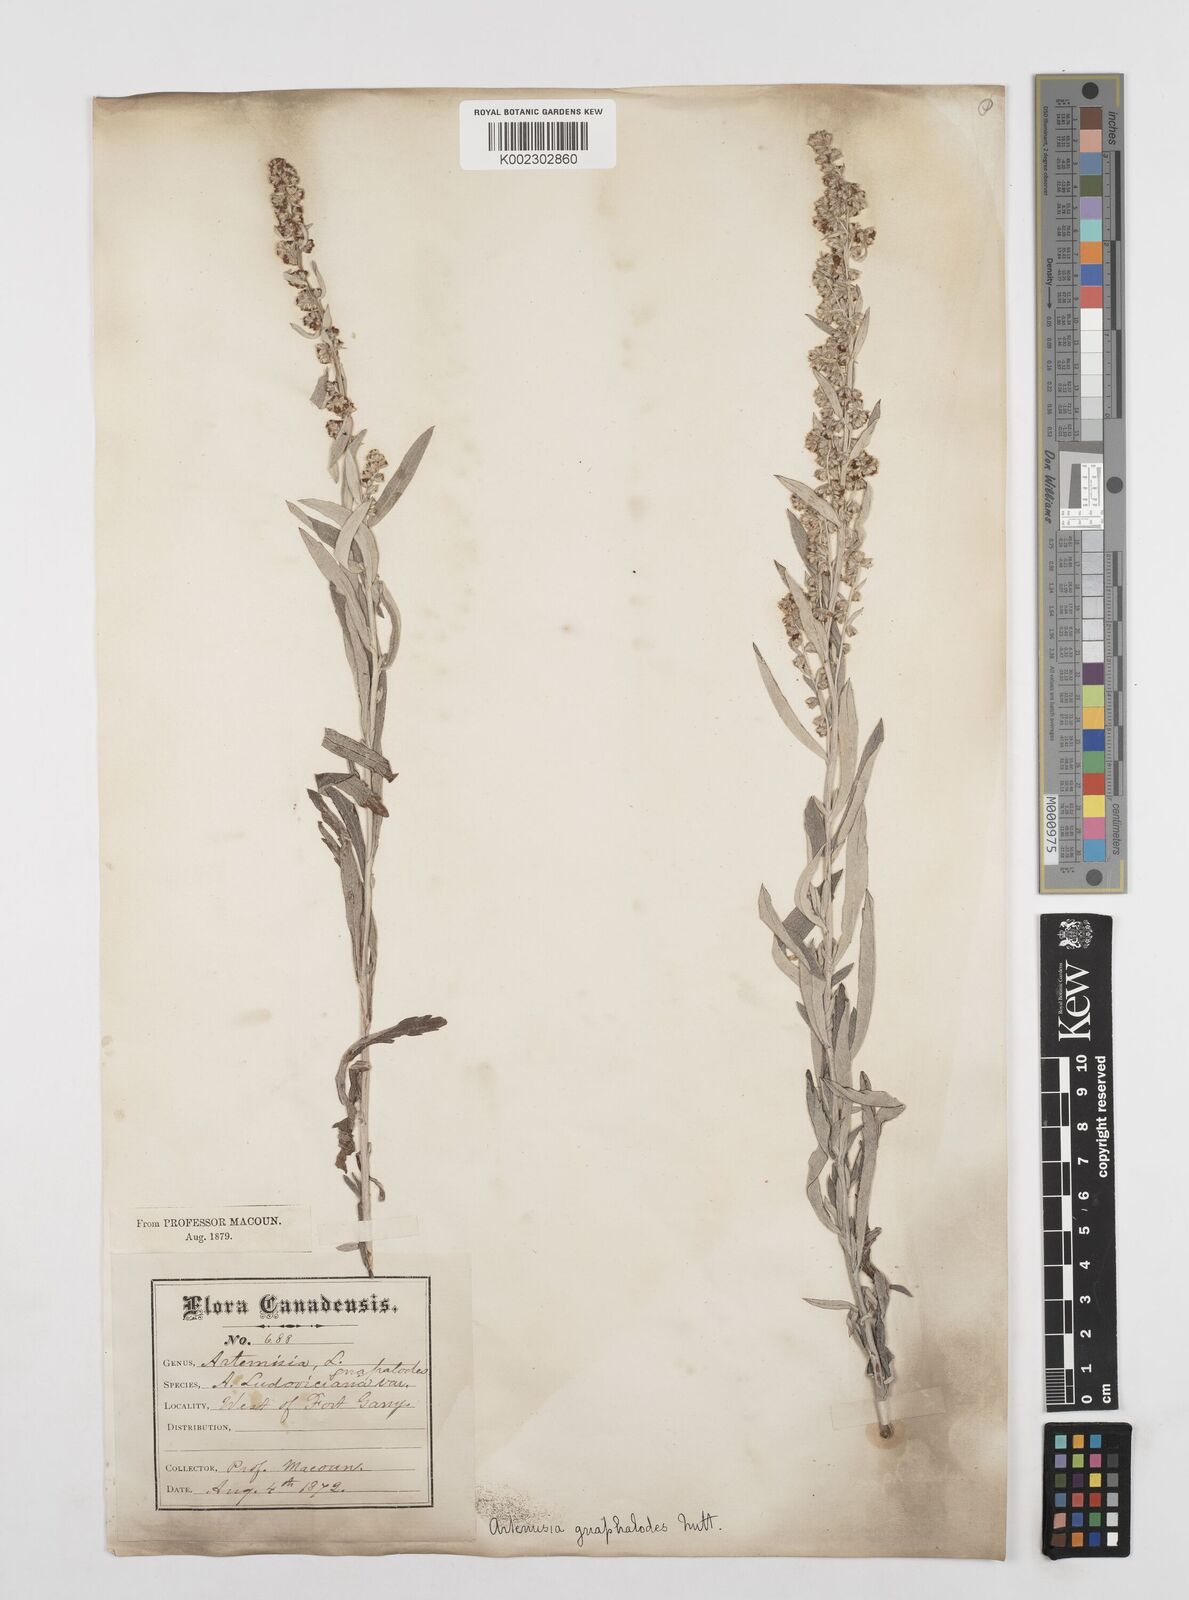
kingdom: Plantae
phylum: Tracheophyta
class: Magnoliopsida
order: Asterales
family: Asteraceae
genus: Artemisia
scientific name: Artemisia ludoviciana
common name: Western mugwort
